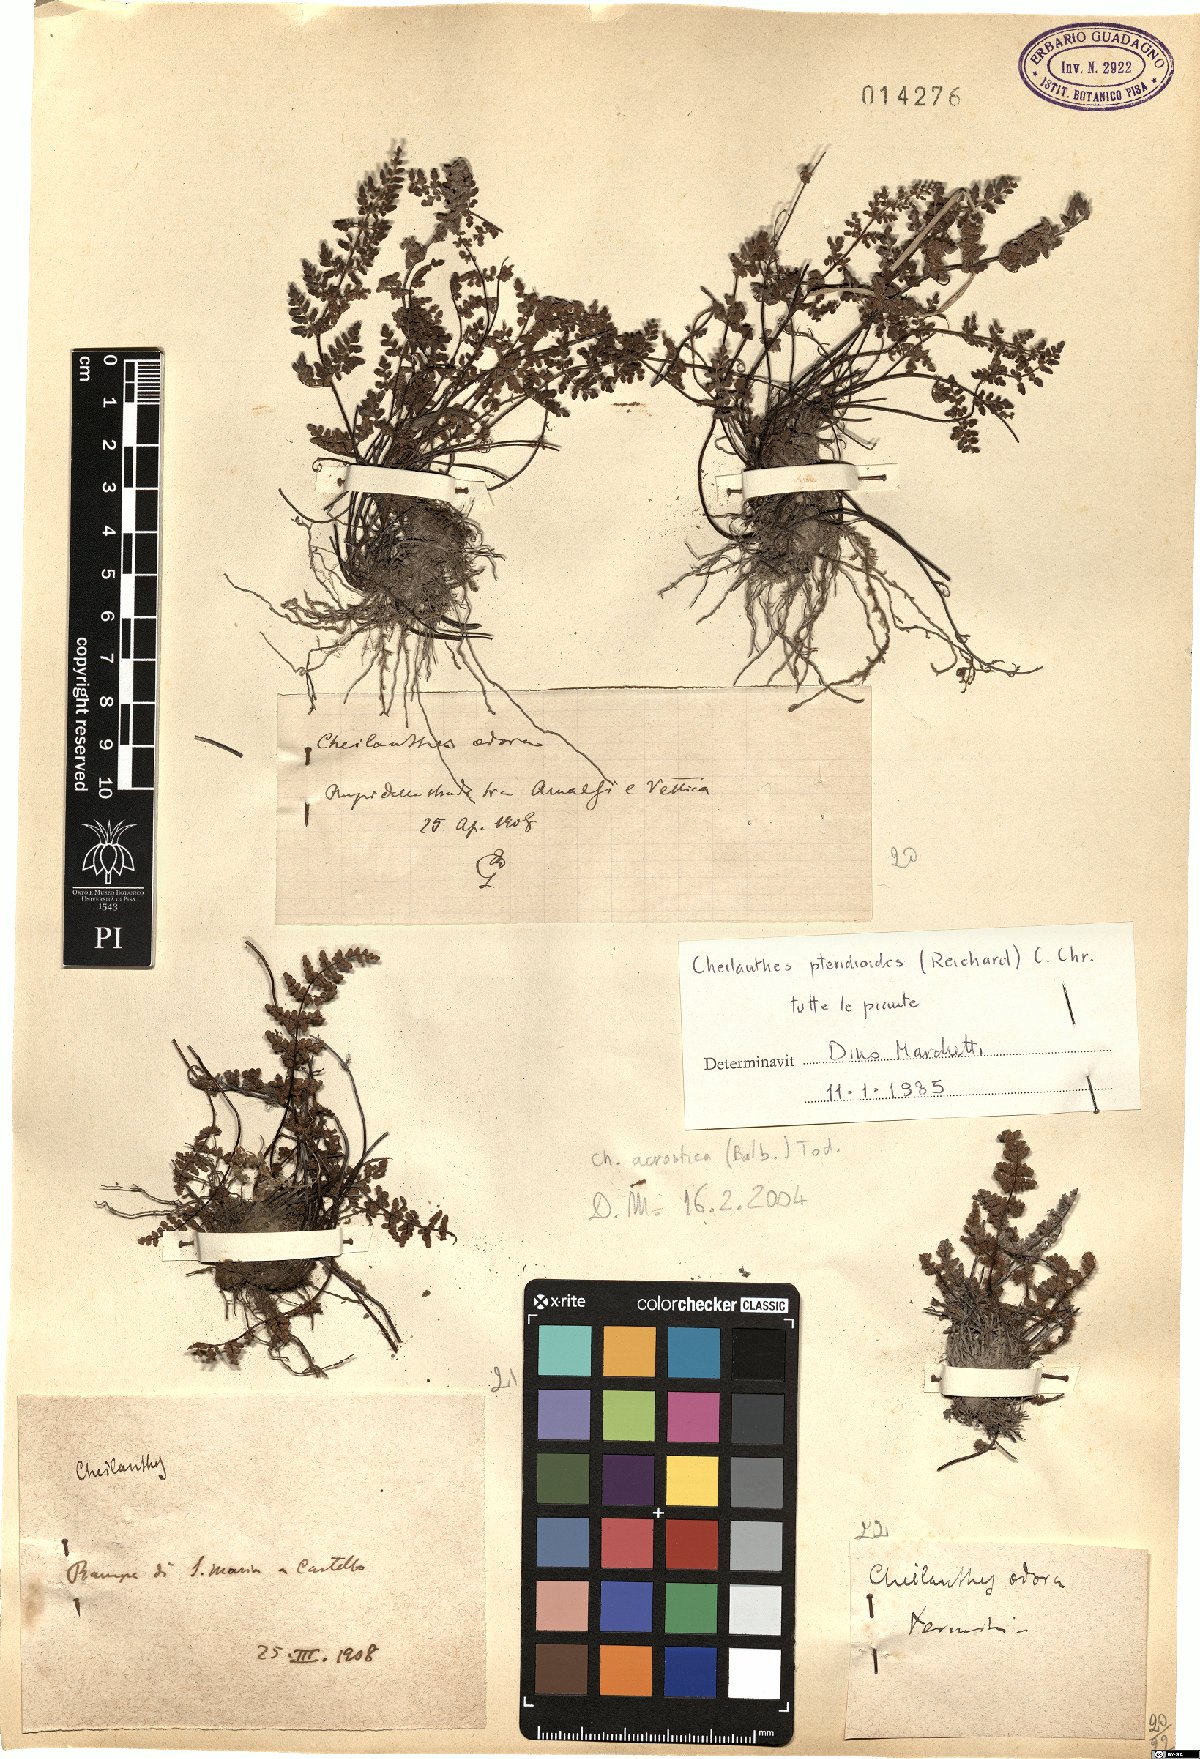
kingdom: Plantae
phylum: Tracheophyta
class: Polypodiopsida
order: Polypodiales
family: Pteridaceae
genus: Oeosporangium
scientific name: Oeosporangium pteridioides
